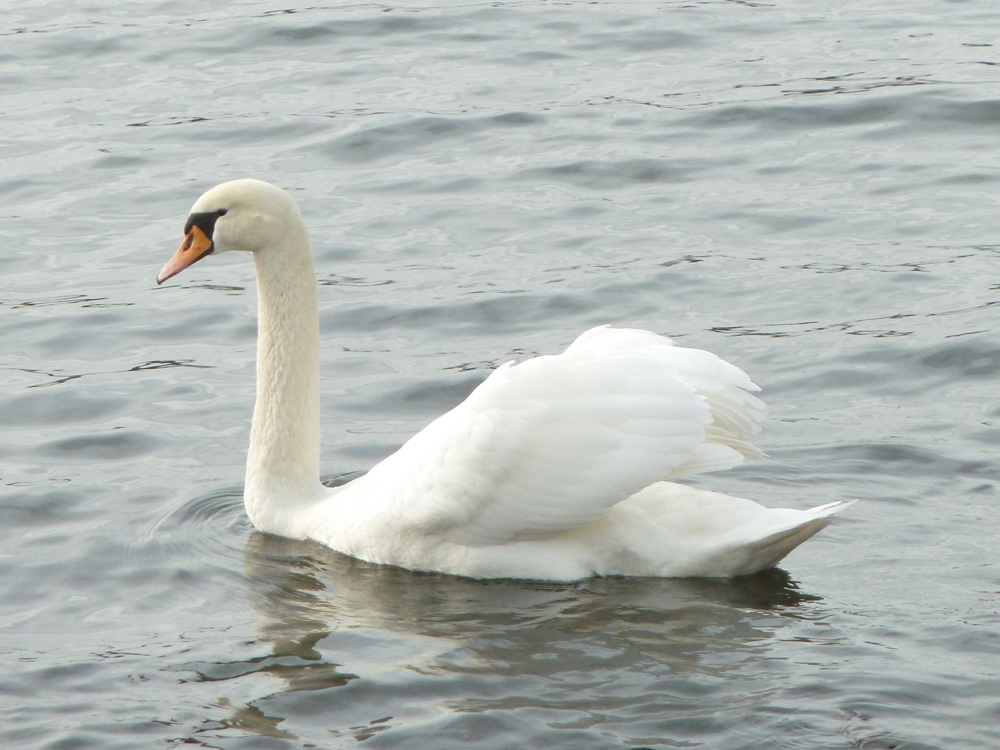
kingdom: Animalia
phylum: Chordata
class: Aves
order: Anseriformes
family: Anatidae
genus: Cygnus
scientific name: Cygnus olor
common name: Mute swan
